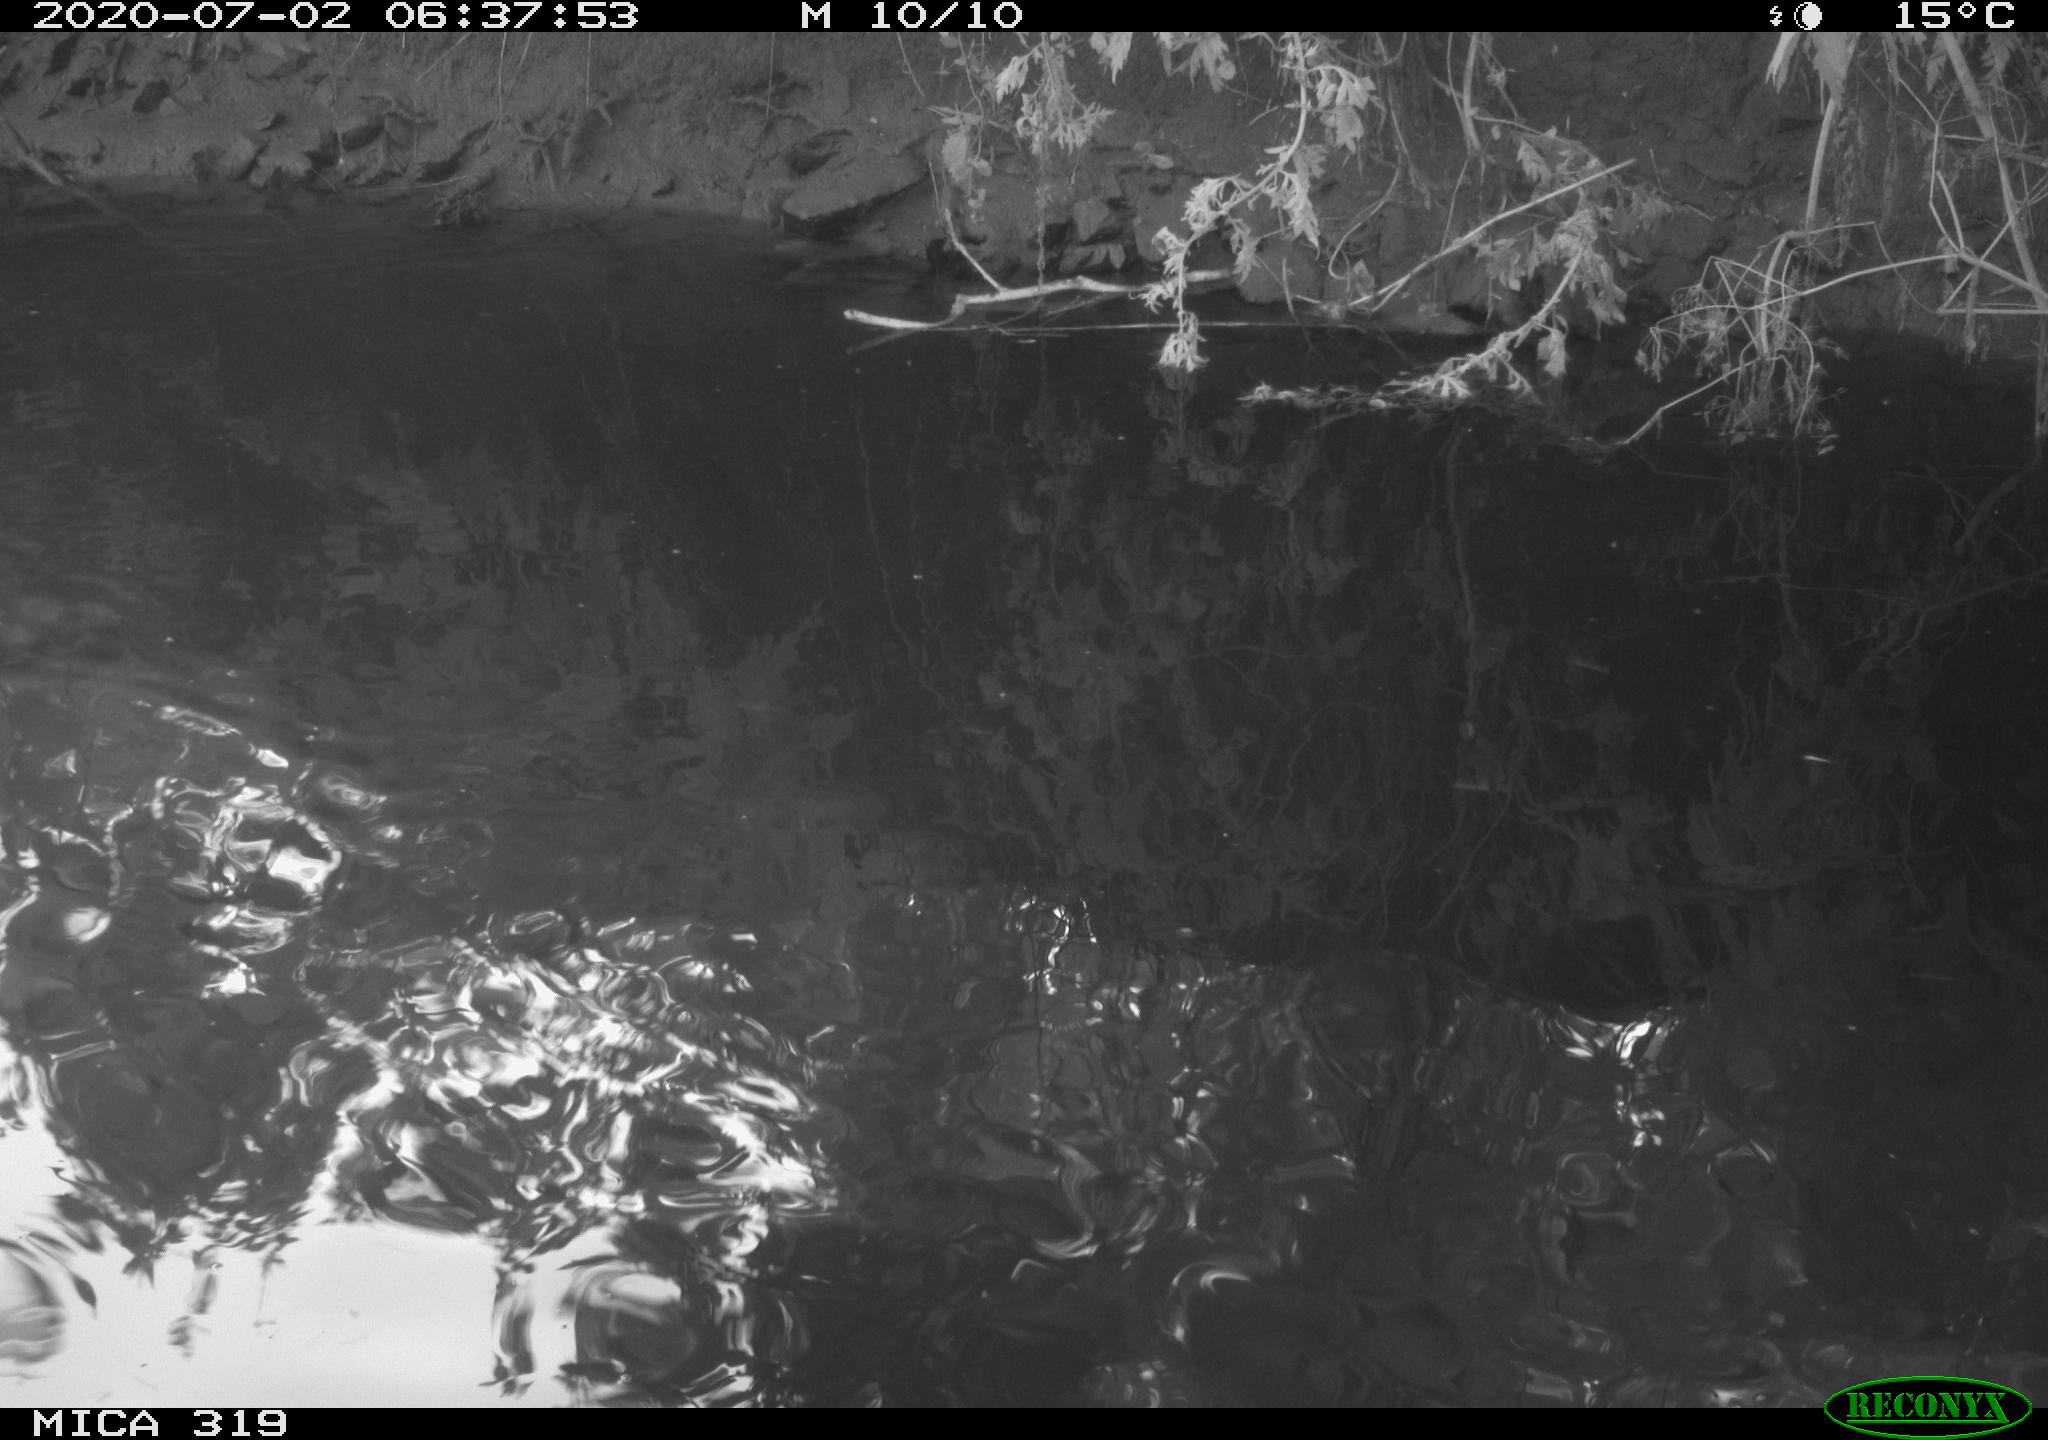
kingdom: Animalia
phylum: Chordata
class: Aves
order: Anseriformes
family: Anatidae
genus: Anas
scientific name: Anas platyrhynchos
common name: Mallard
